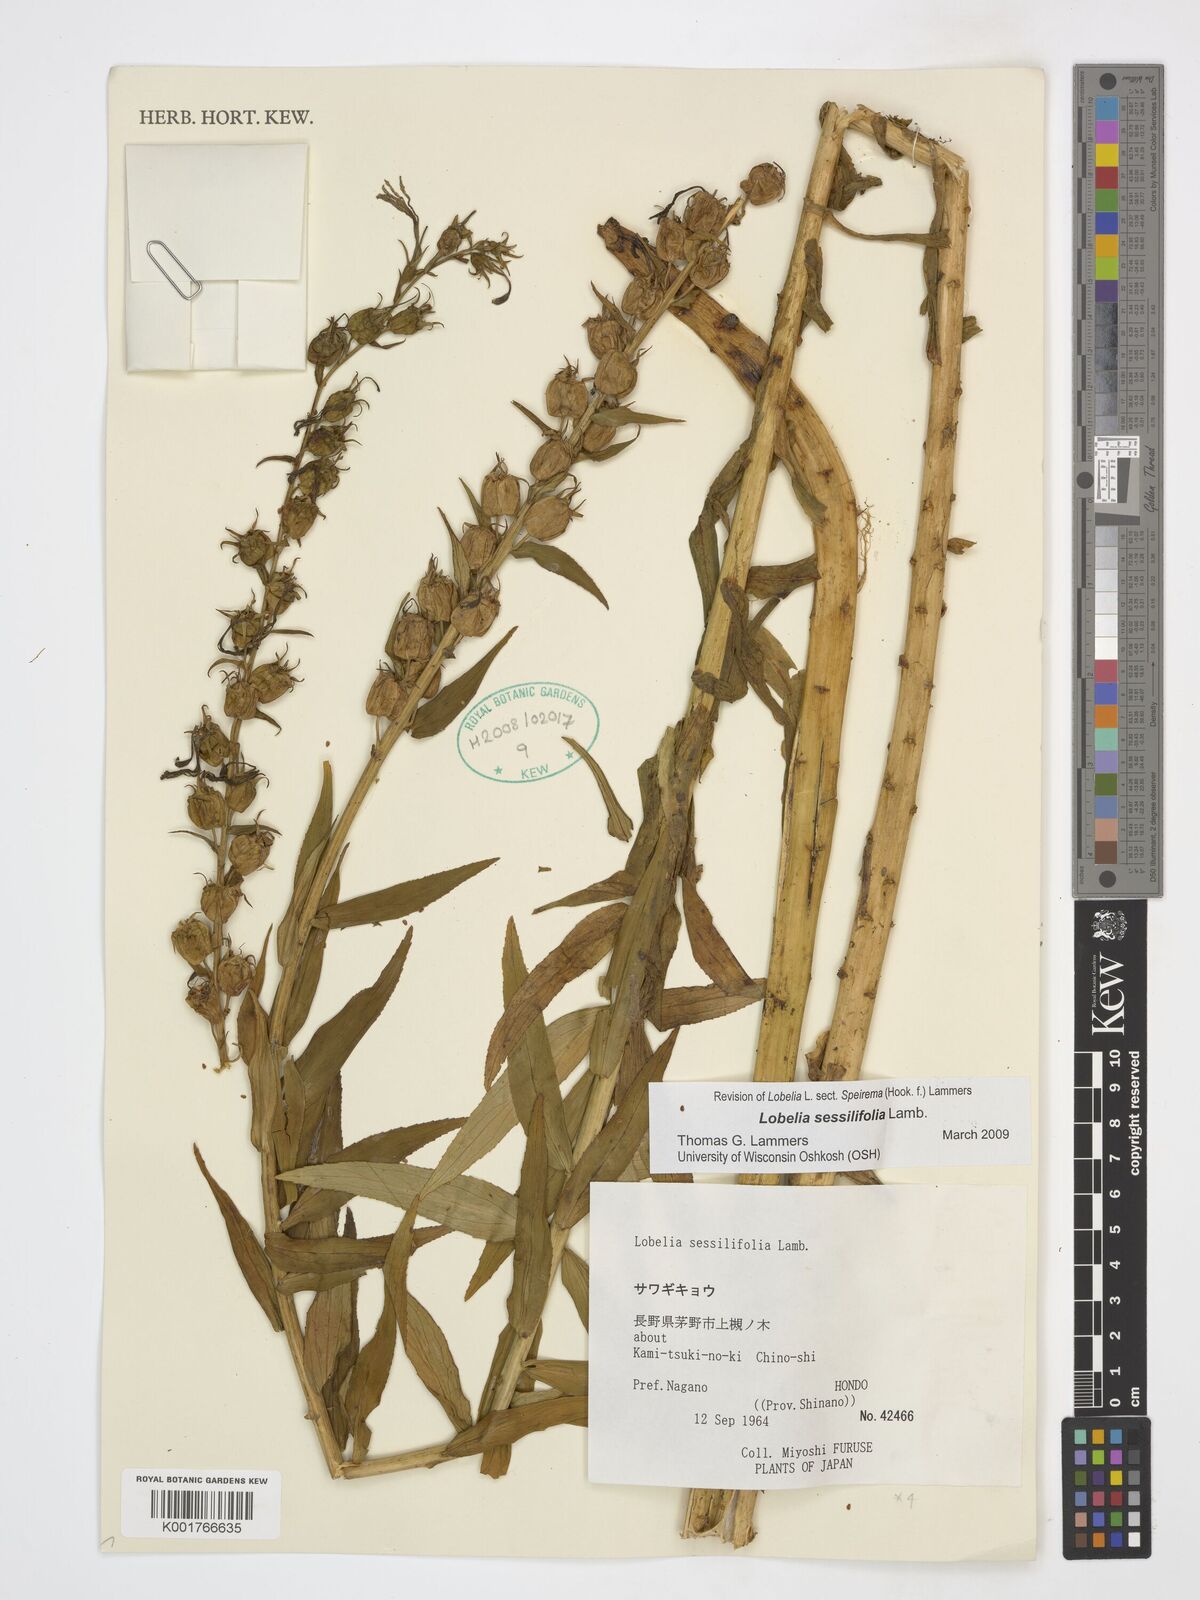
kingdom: Plantae
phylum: Tracheophyta
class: Magnoliopsida
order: Asterales
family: Campanulaceae
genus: Lobelia
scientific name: Lobelia sessilifolia
